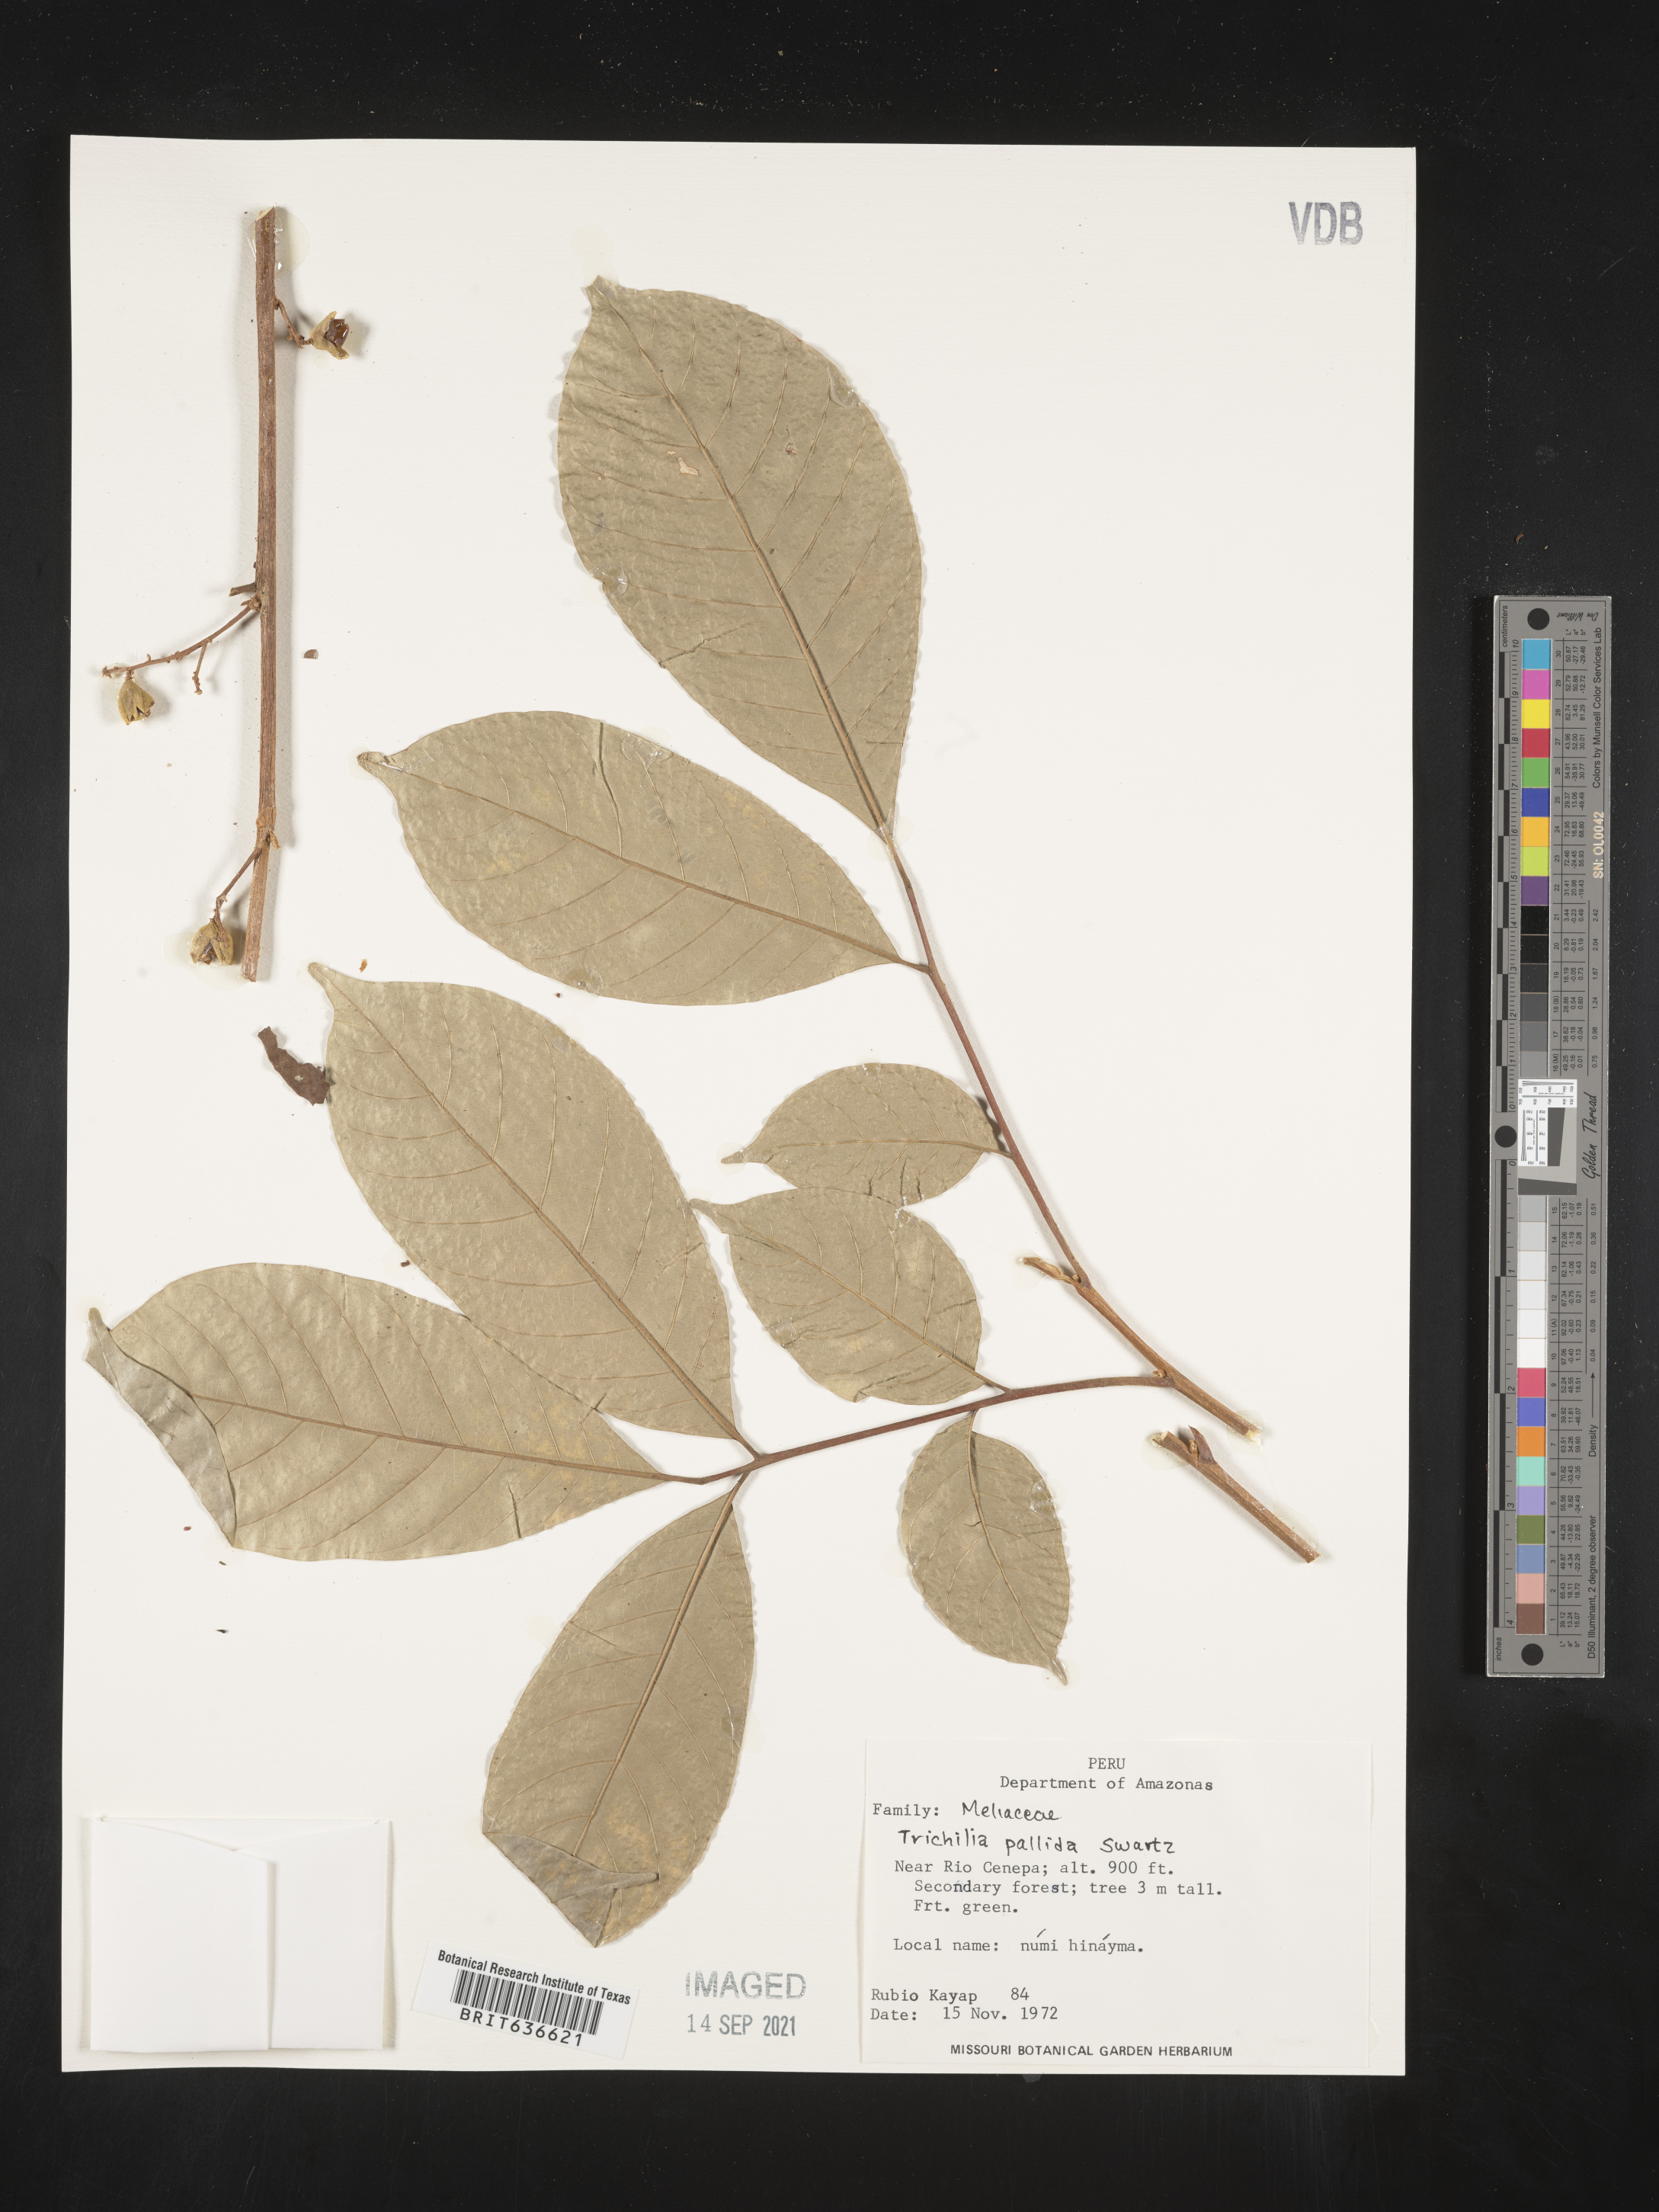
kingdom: Plantae
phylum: Tracheophyta
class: Magnoliopsida
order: Sapindales
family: Meliaceae
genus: Trichilia
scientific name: Trichilia
